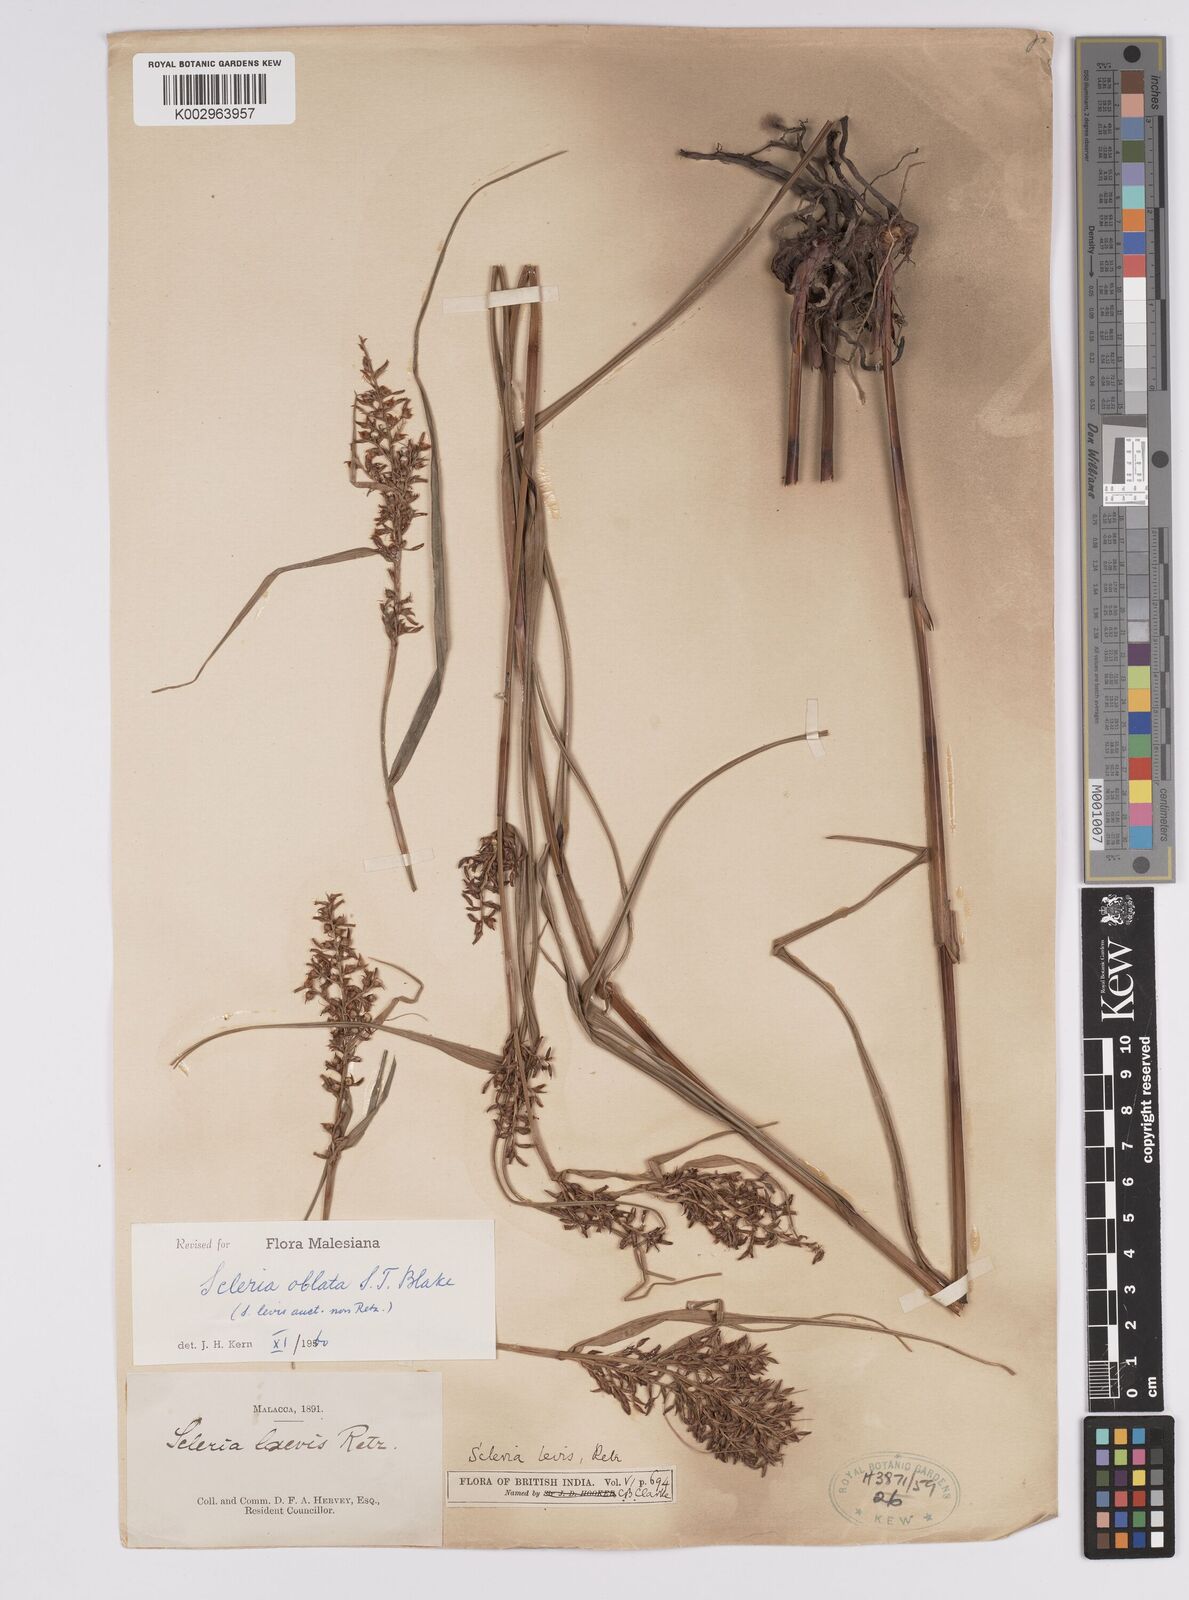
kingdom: Plantae
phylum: Tracheophyta
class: Liliopsida
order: Poales
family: Cyperaceae
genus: Scleria
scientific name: Scleria oblata
